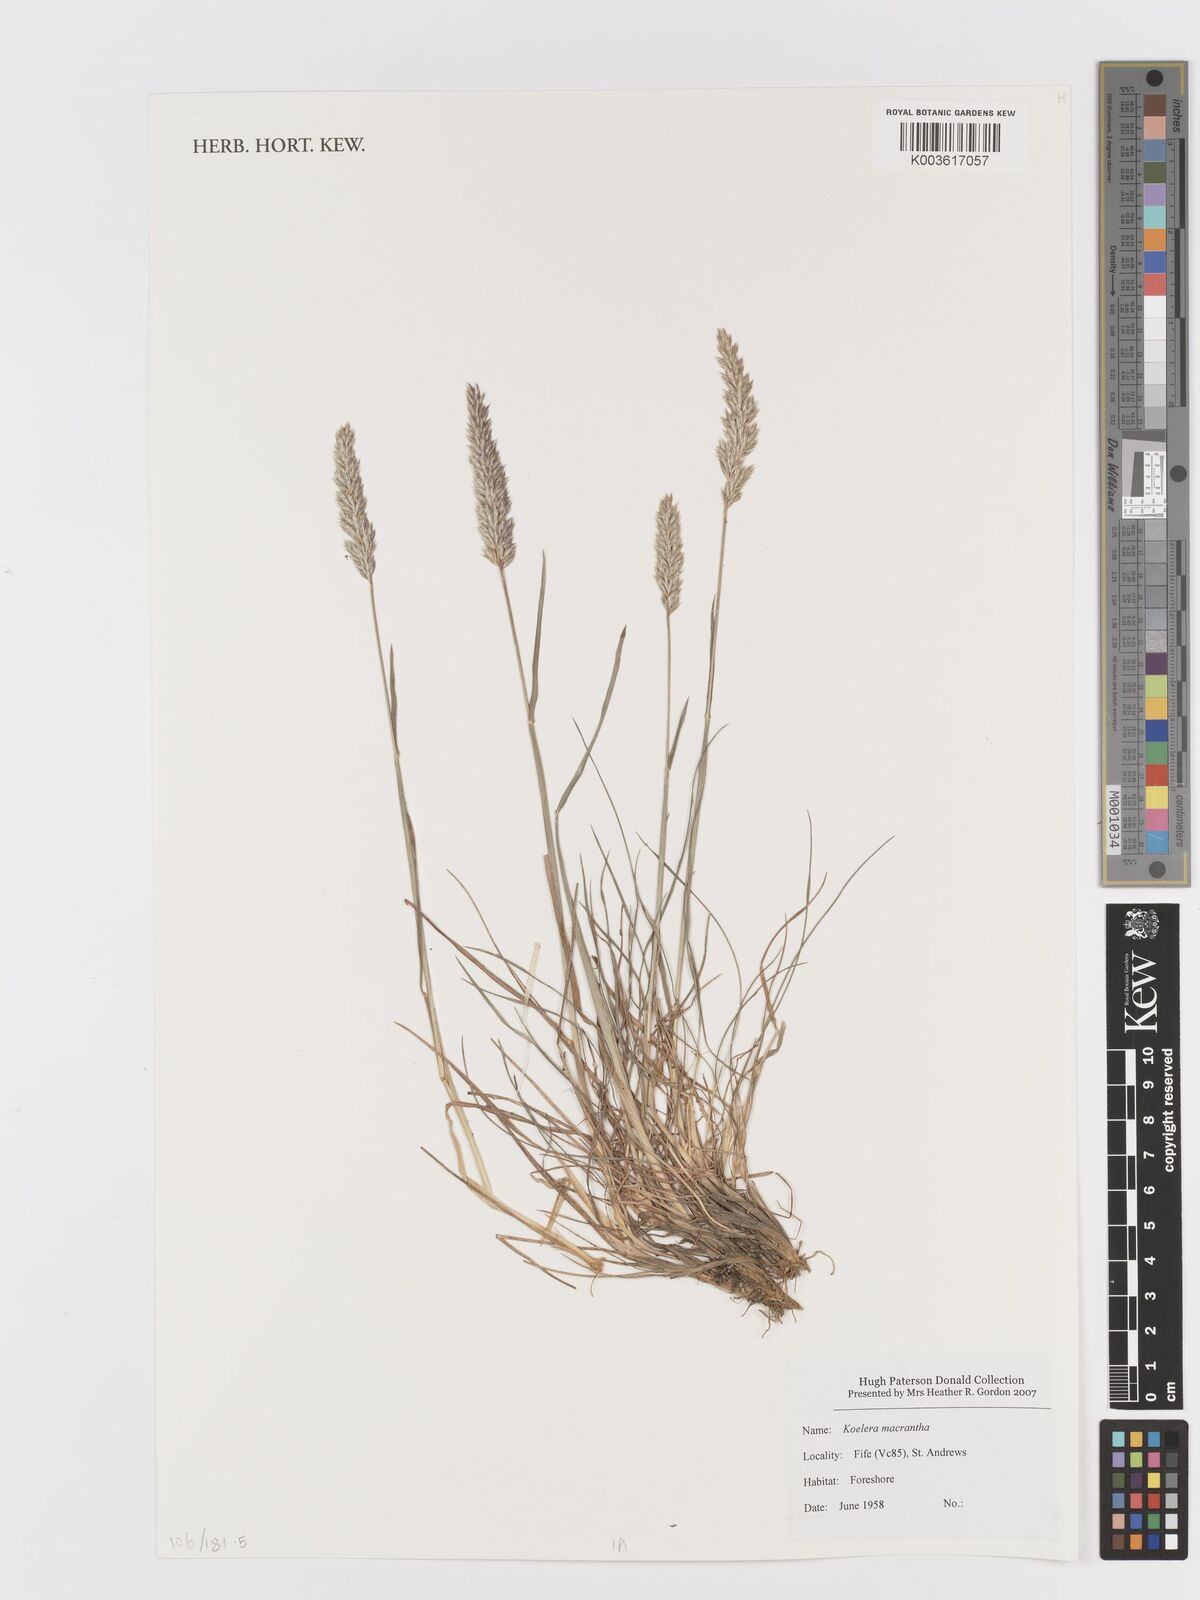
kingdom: Plantae
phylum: Tracheophyta
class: Liliopsida
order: Poales
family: Poaceae
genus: Koeleria
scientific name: Koeleria macrantha
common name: Crested hair-grass
